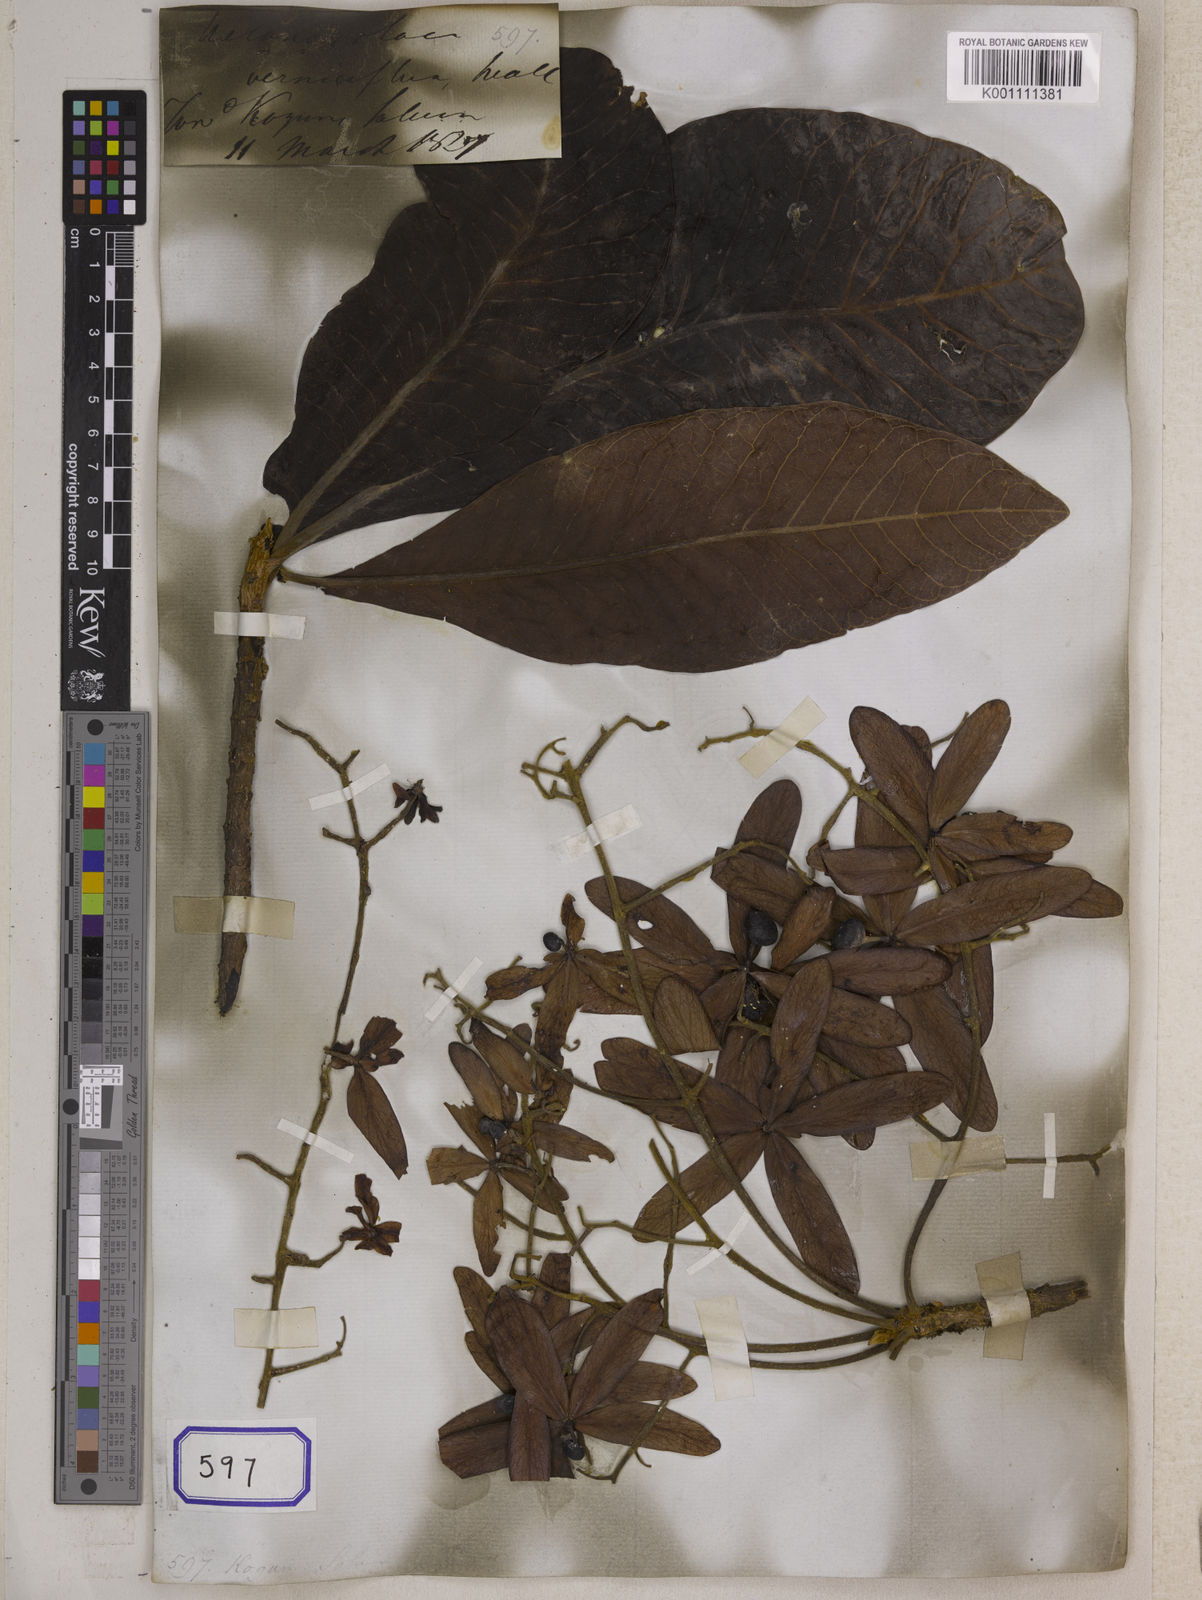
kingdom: Plantae
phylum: Tracheophyta
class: Magnoliopsida
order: Sapindales
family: Anacardiaceae
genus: Gluta
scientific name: Gluta
